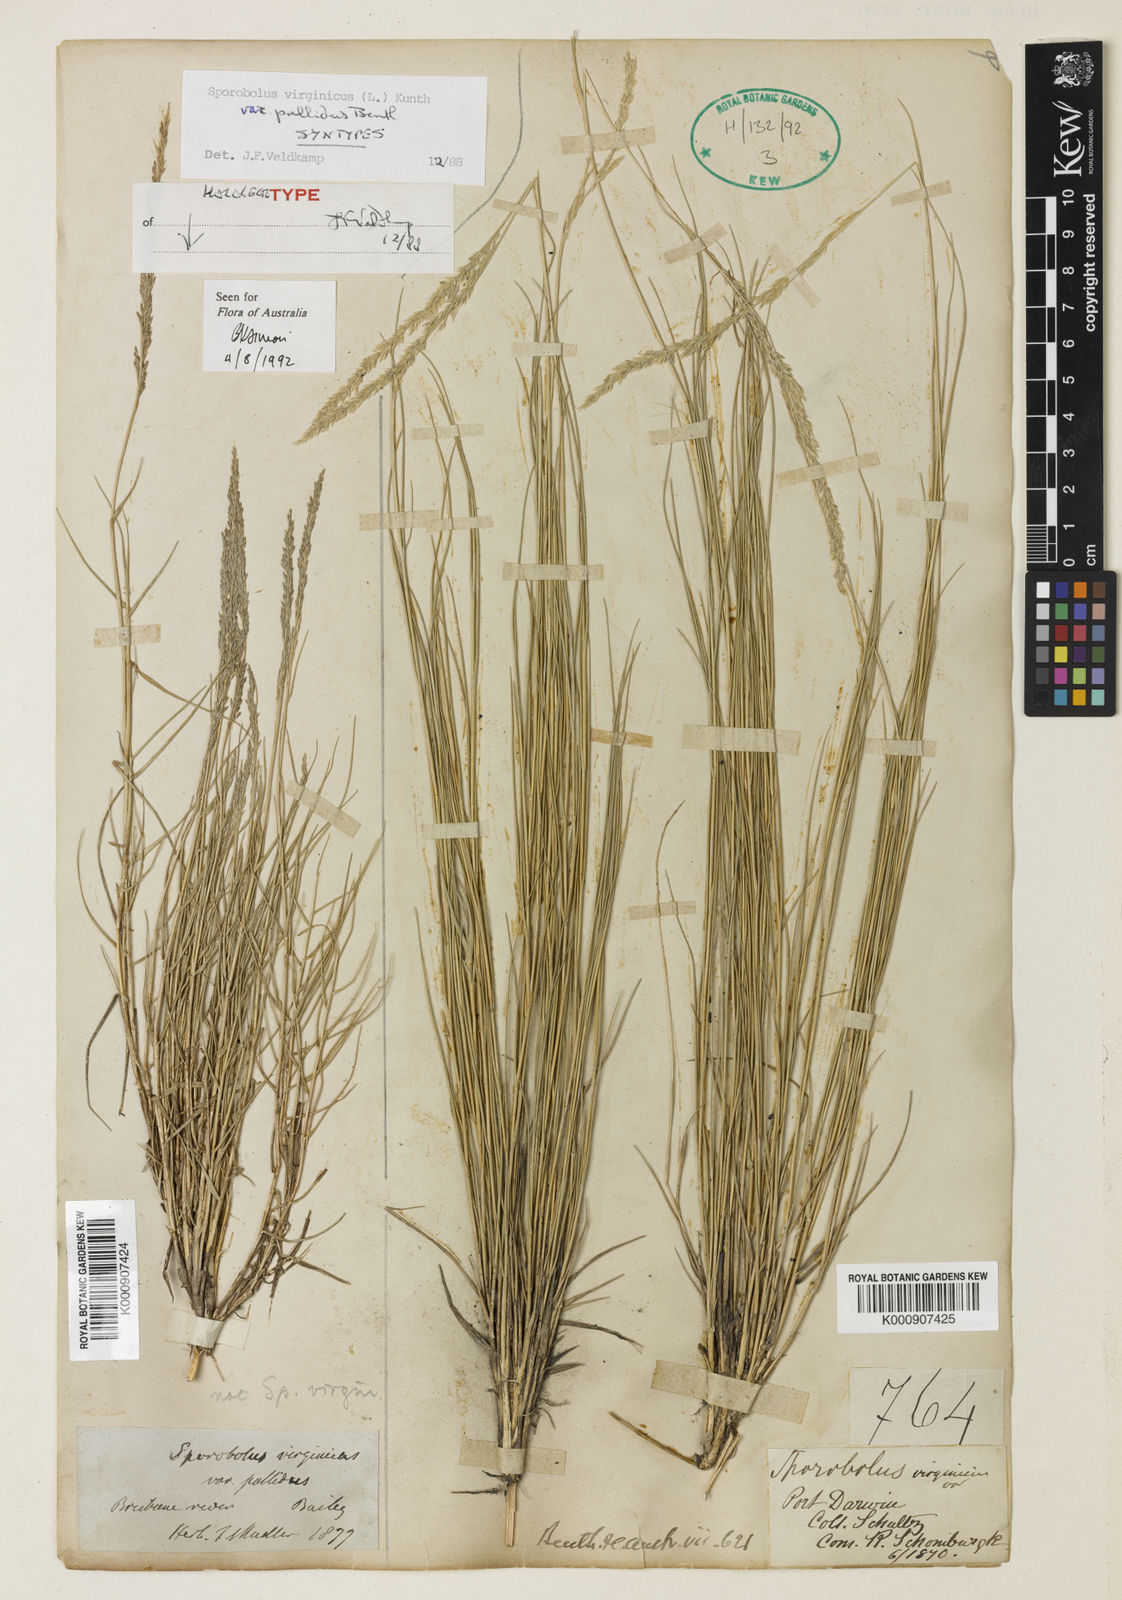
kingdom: Plantae
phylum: Tracheophyta
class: Liliopsida
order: Poales
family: Poaceae
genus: Sporobolus
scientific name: Sporobolus virginicus
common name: Beach dropseed
